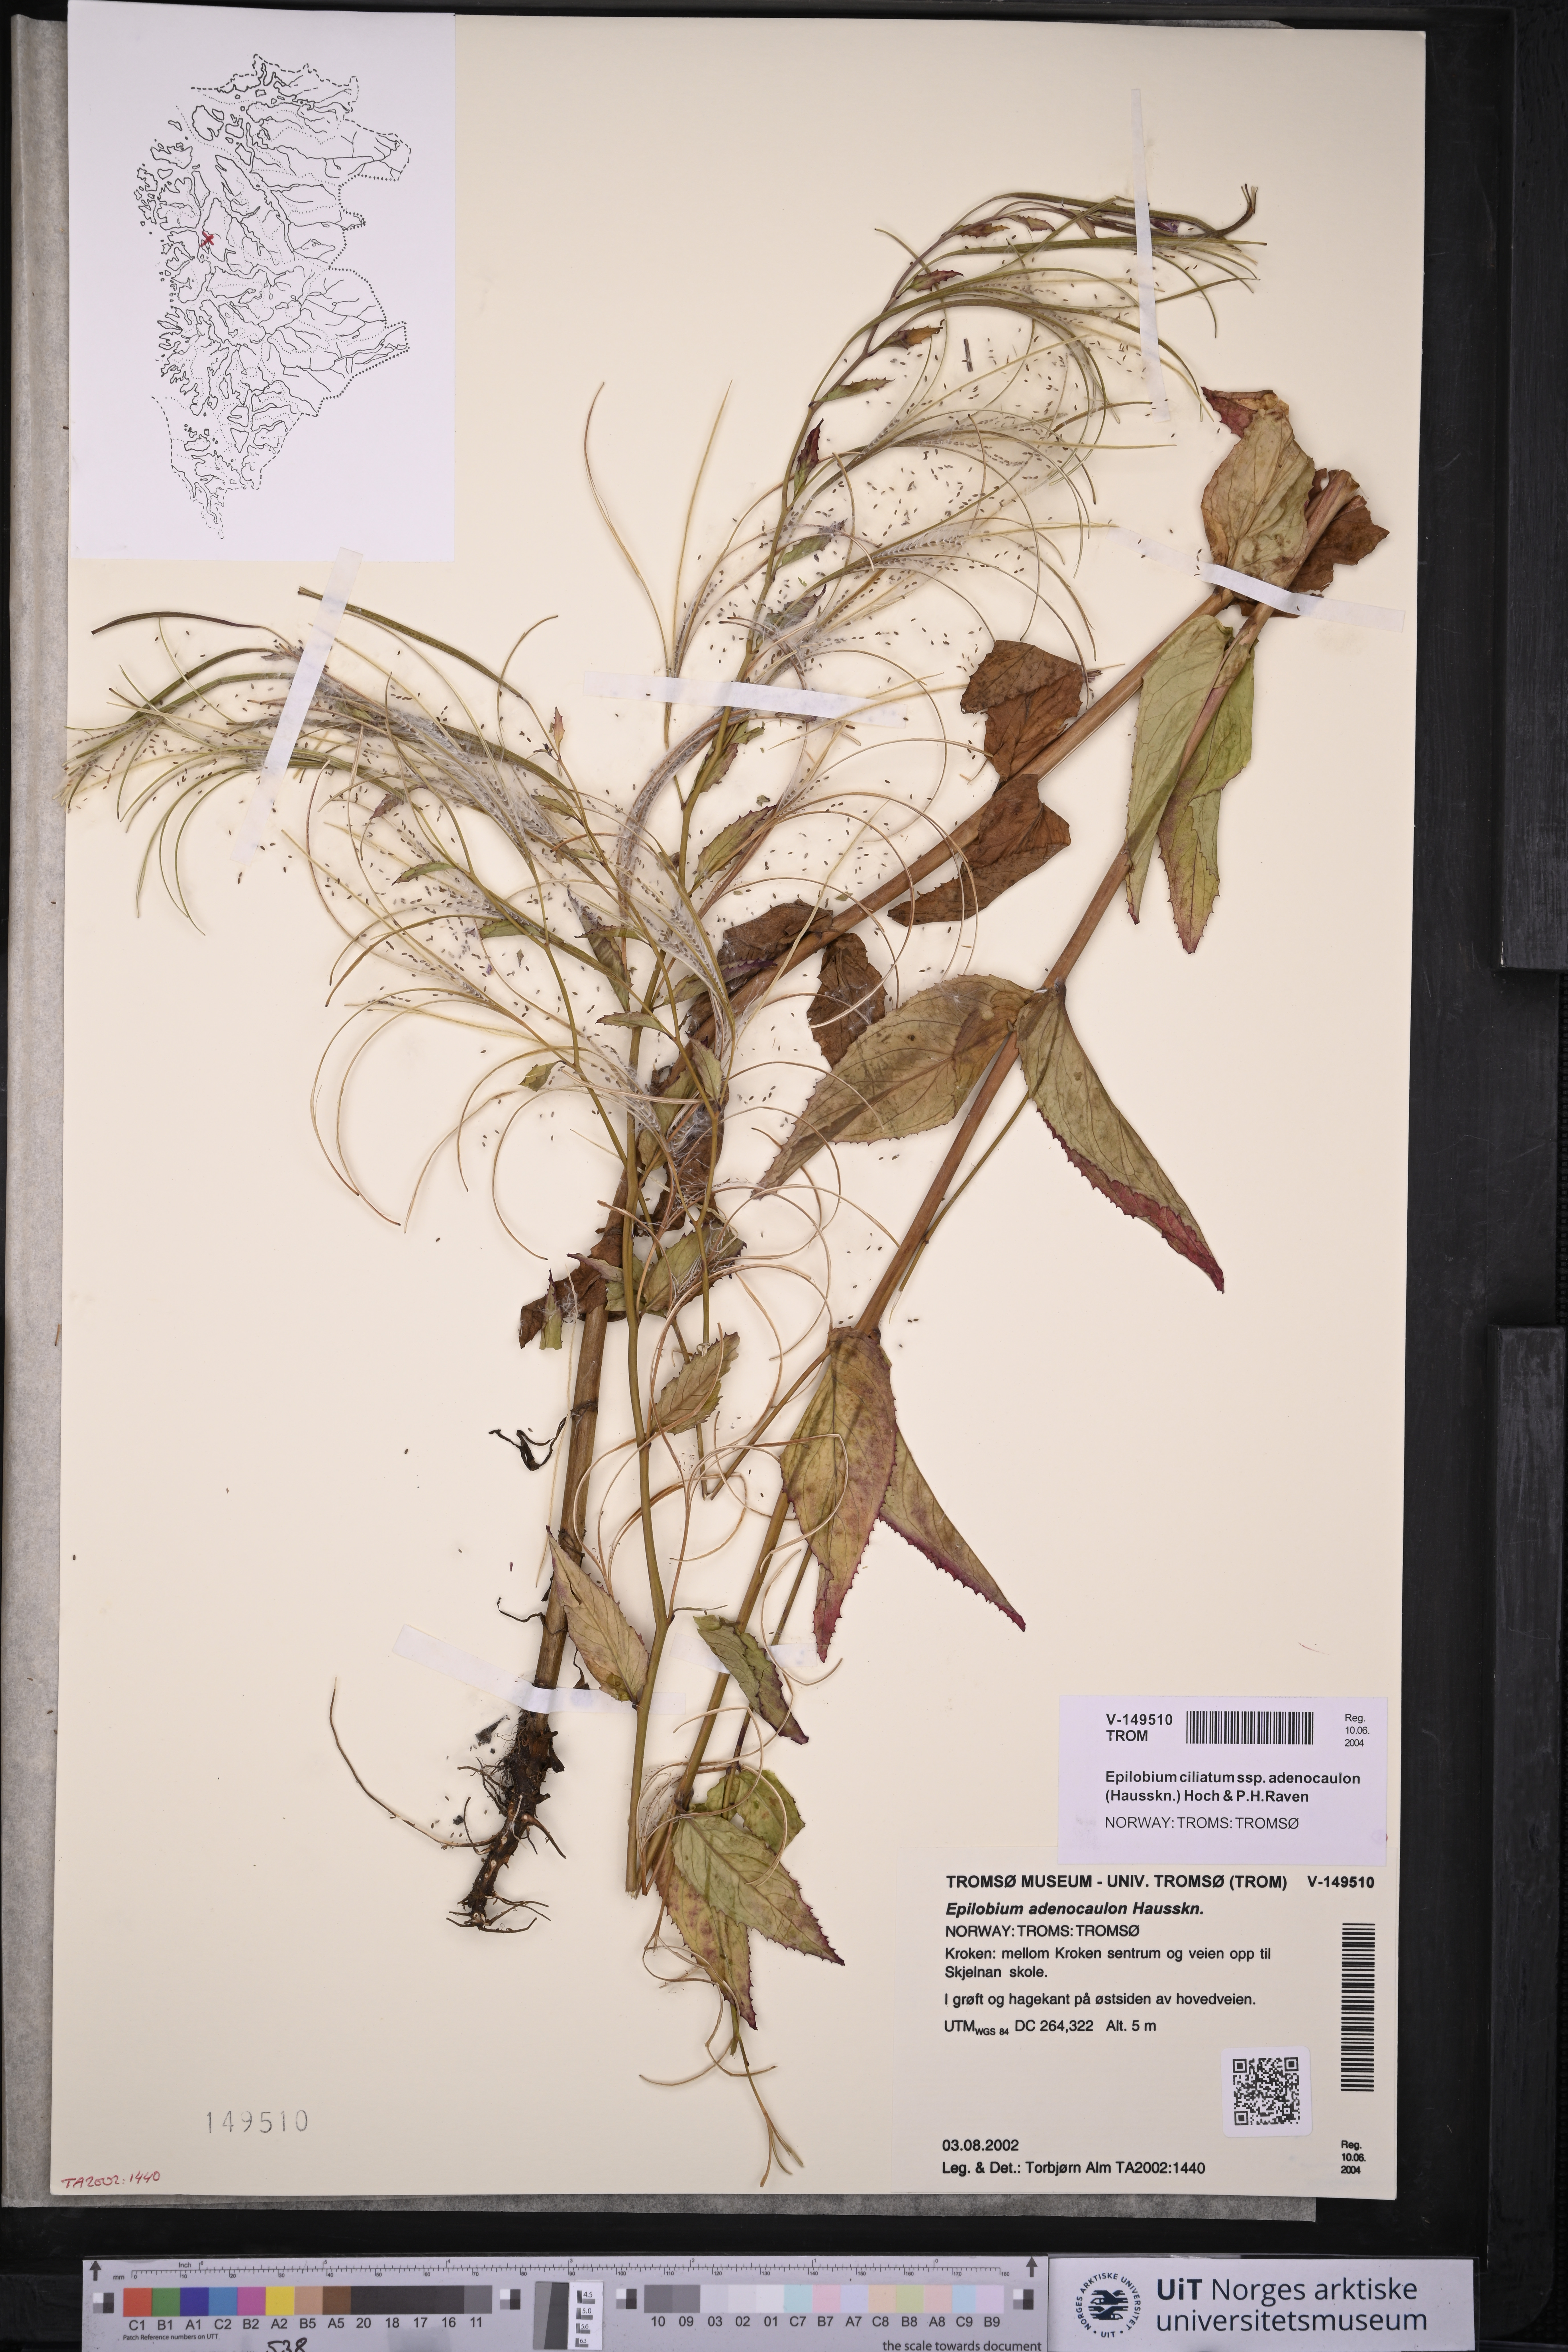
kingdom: Plantae
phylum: Tracheophyta
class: Magnoliopsida
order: Myrtales
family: Onagraceae
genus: Epilobium
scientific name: Epilobium ciliatum
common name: American willowherb
